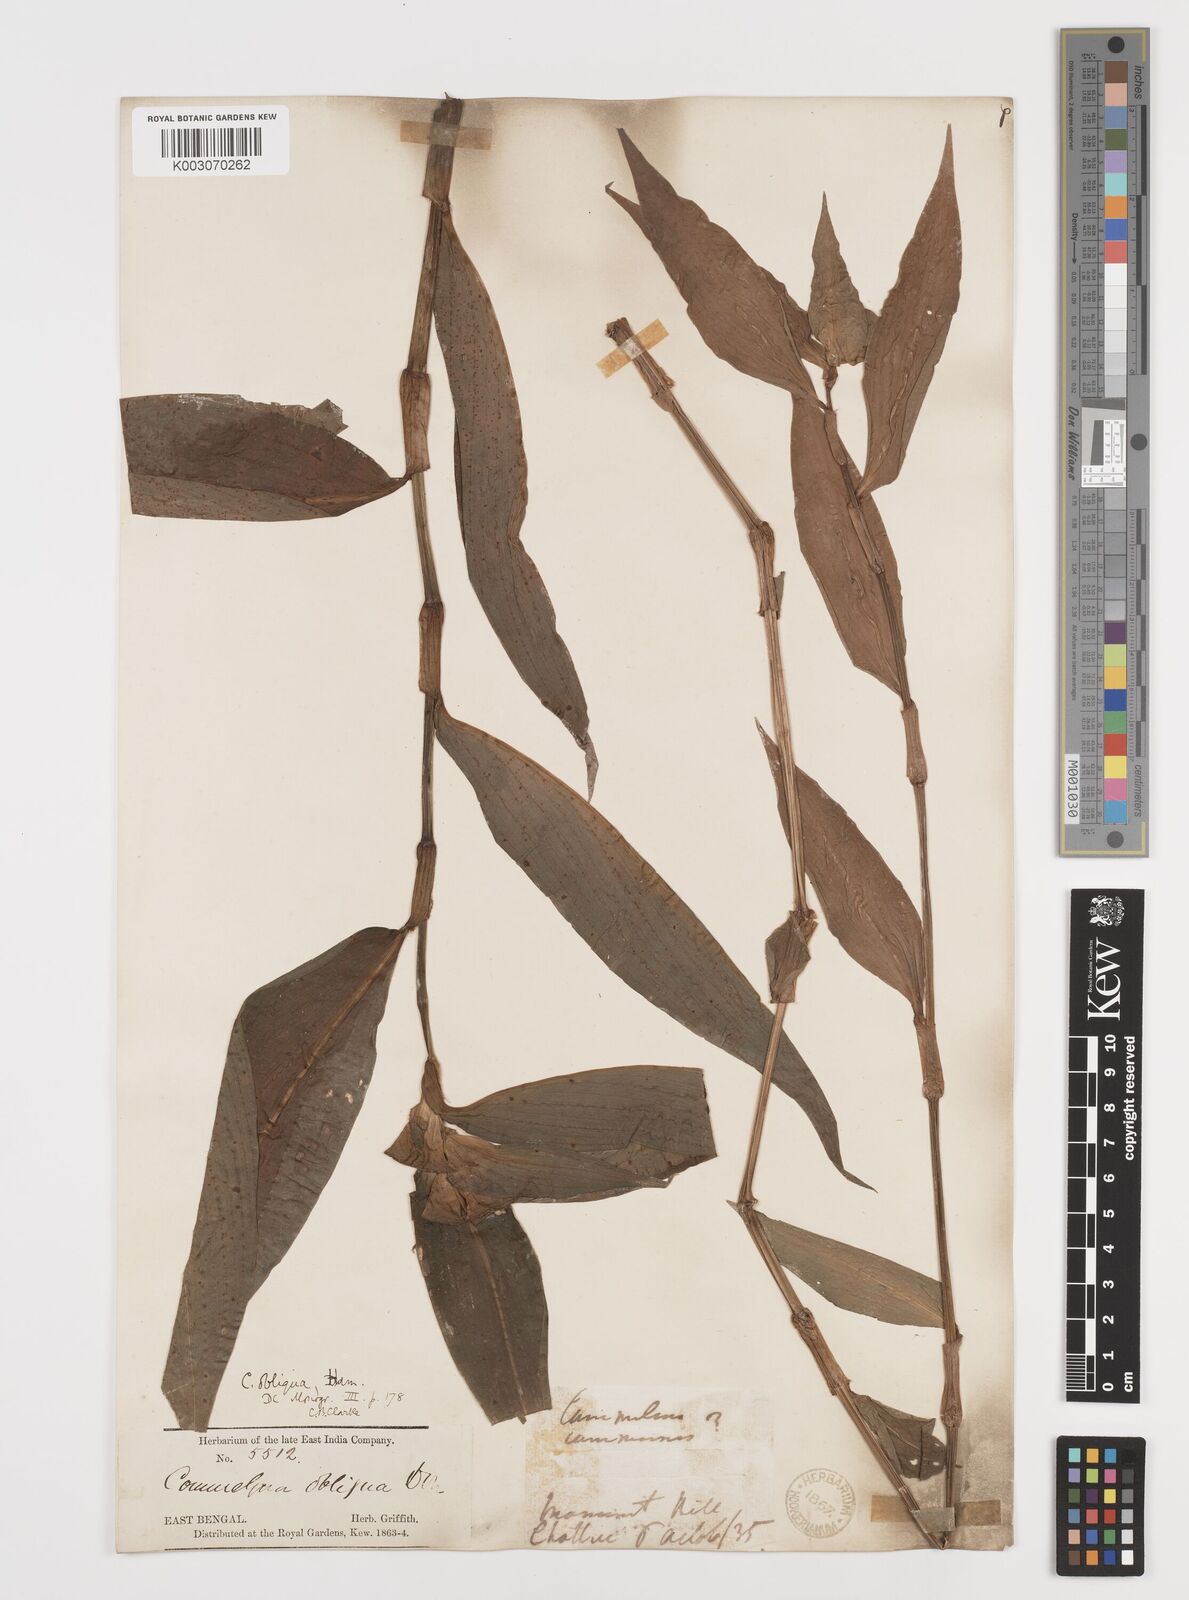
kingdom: Plantae
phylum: Tracheophyta
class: Liliopsida
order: Commelinales
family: Commelinaceae
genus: Commelina
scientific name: Commelina paludosa
